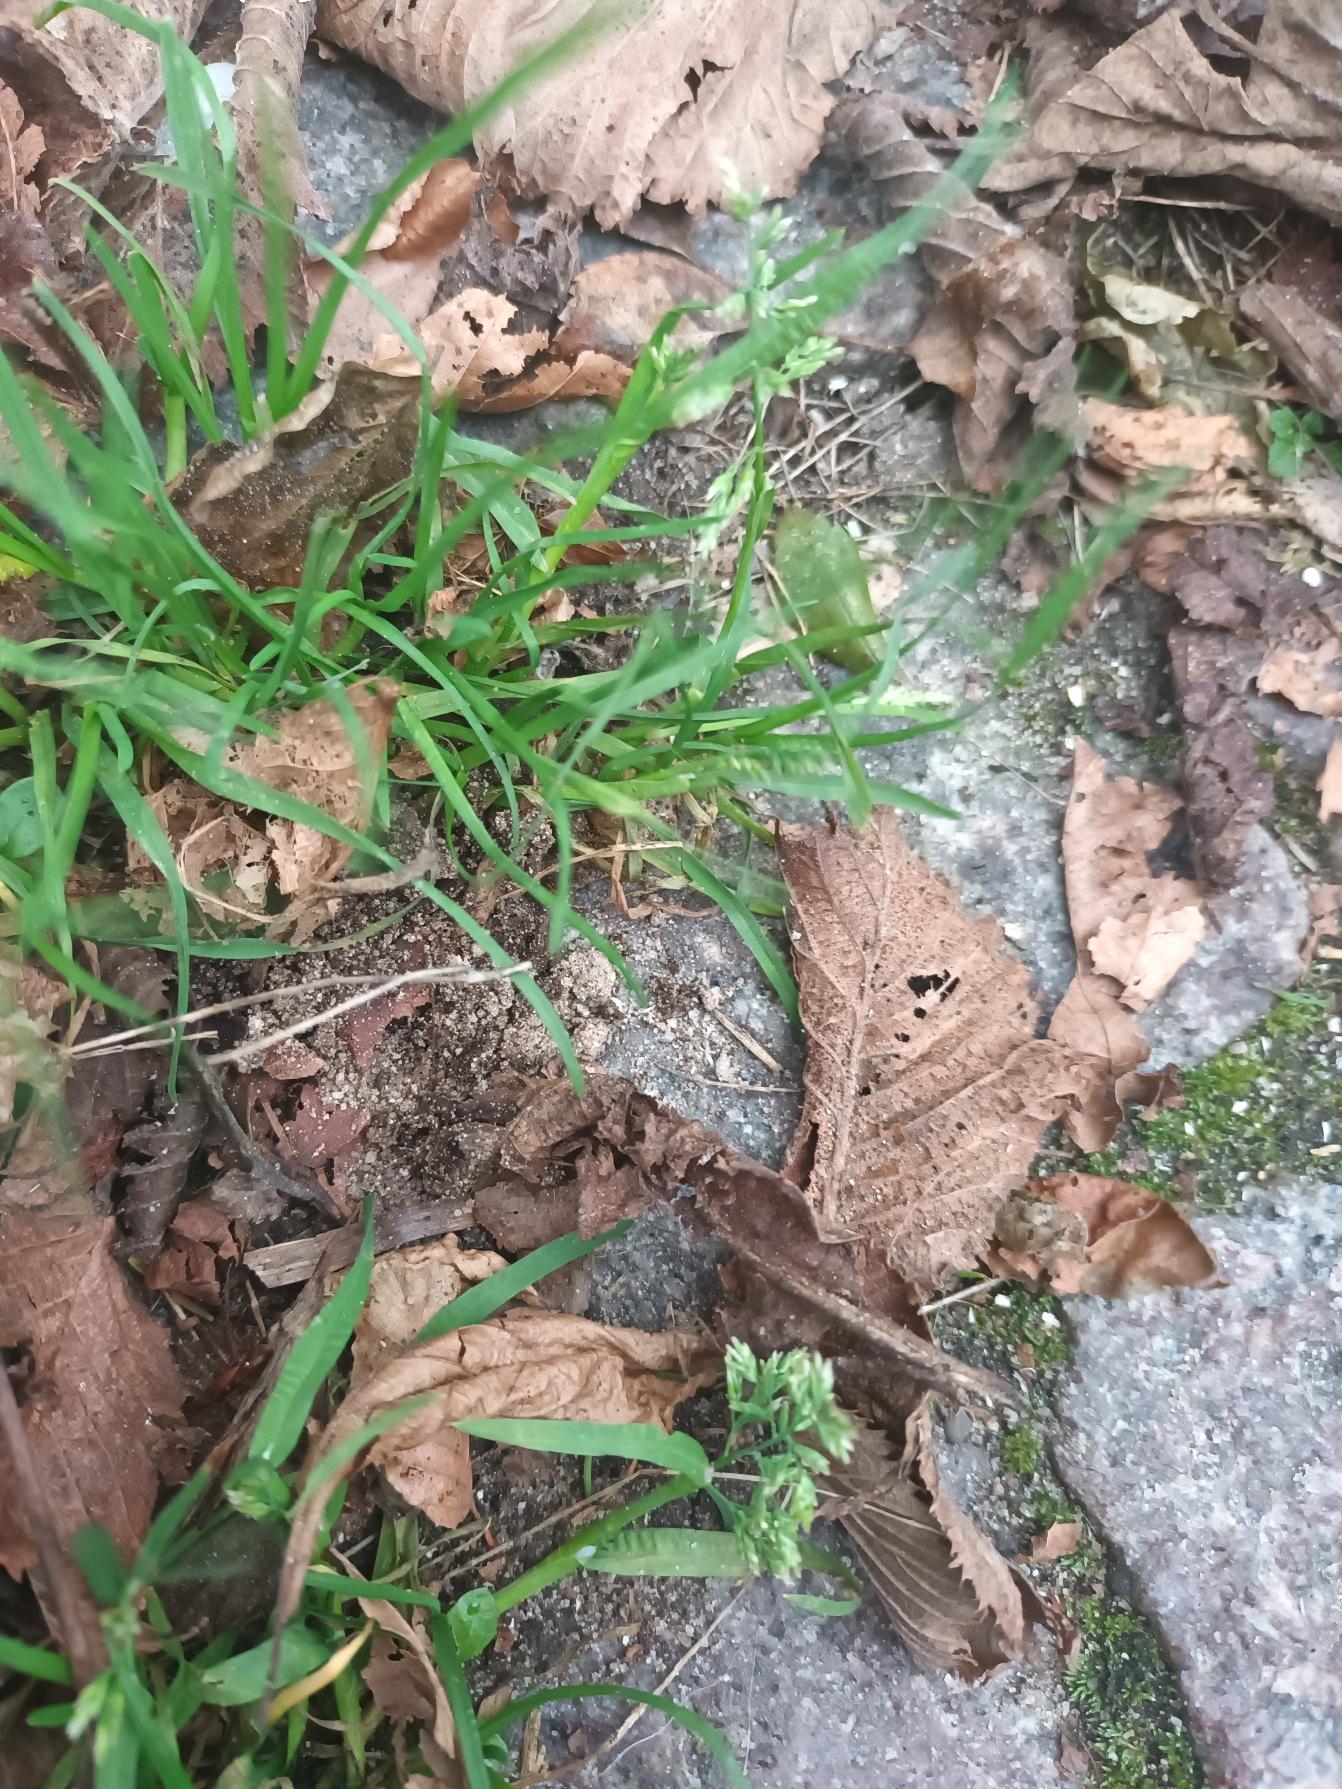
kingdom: Plantae
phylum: Tracheophyta
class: Liliopsida
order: Poales
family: Poaceae
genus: Poa
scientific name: Poa annua
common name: Enårig rapgræs
